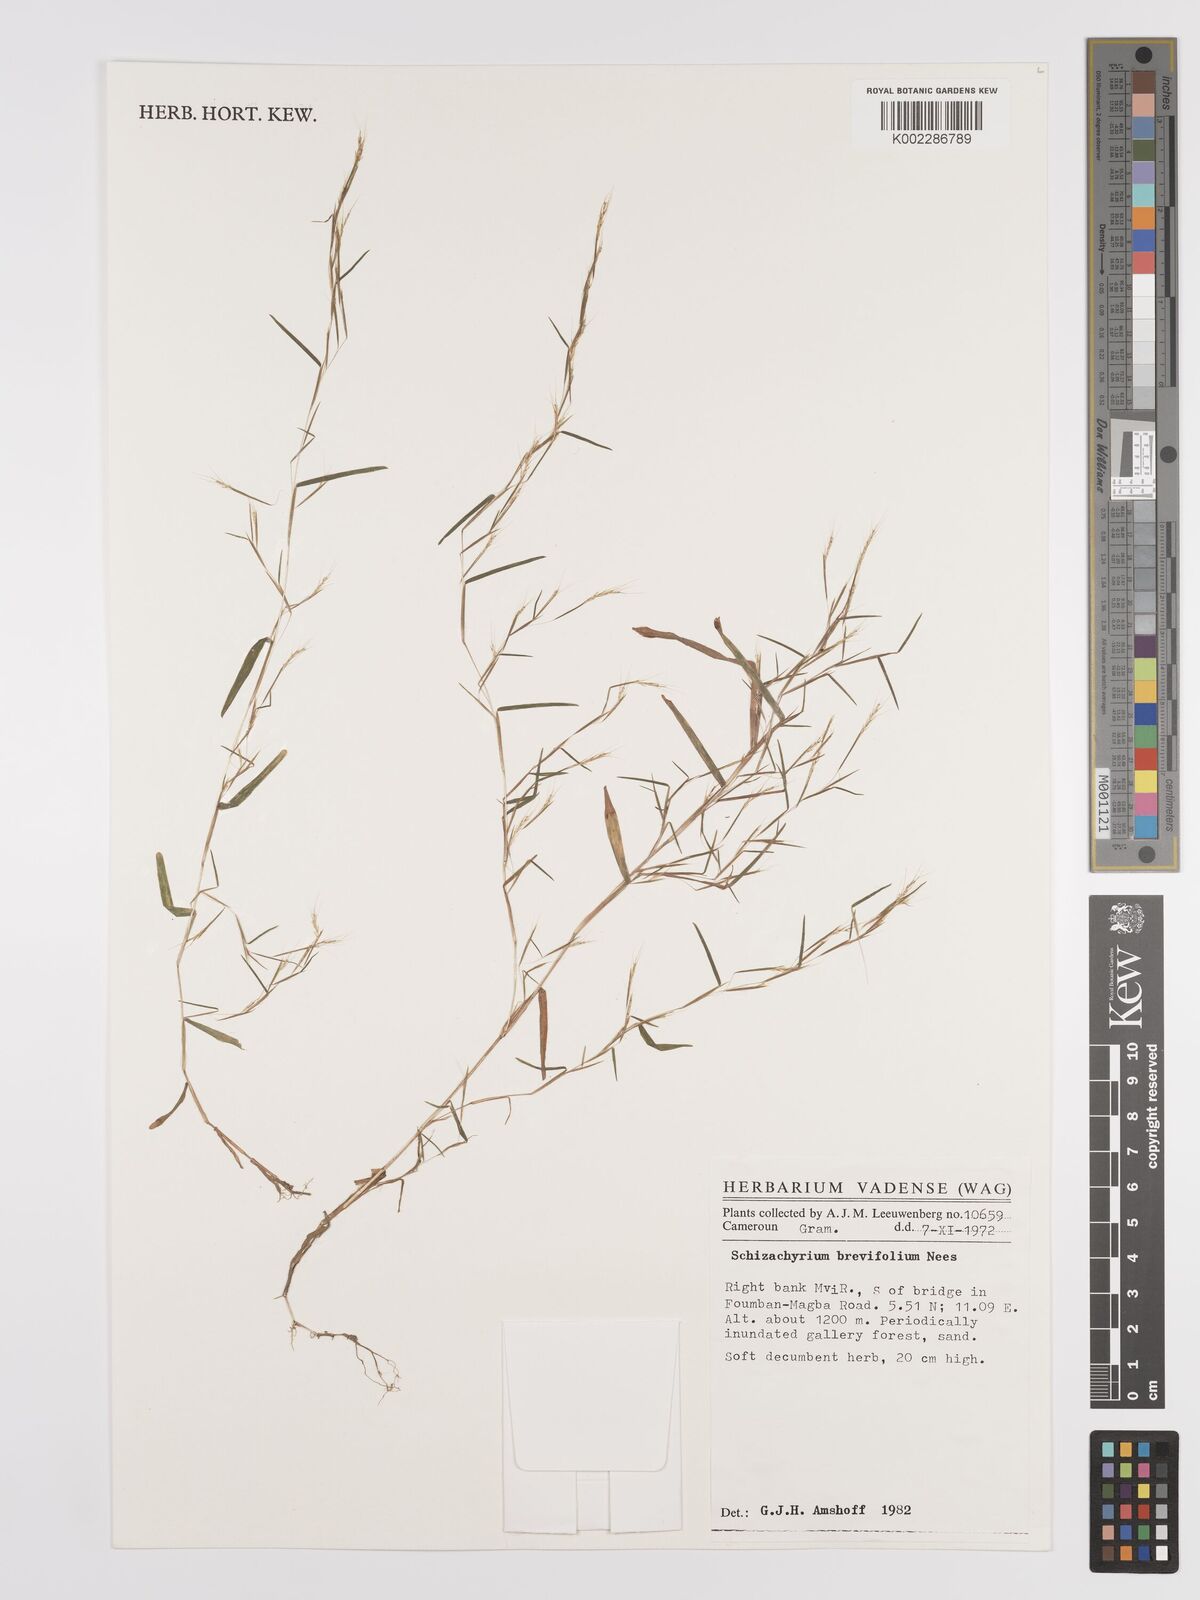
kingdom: Plantae
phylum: Tracheophyta
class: Liliopsida
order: Poales
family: Poaceae
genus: Schizachyrium
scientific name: Schizachyrium brevifolium
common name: Serillo dulce
